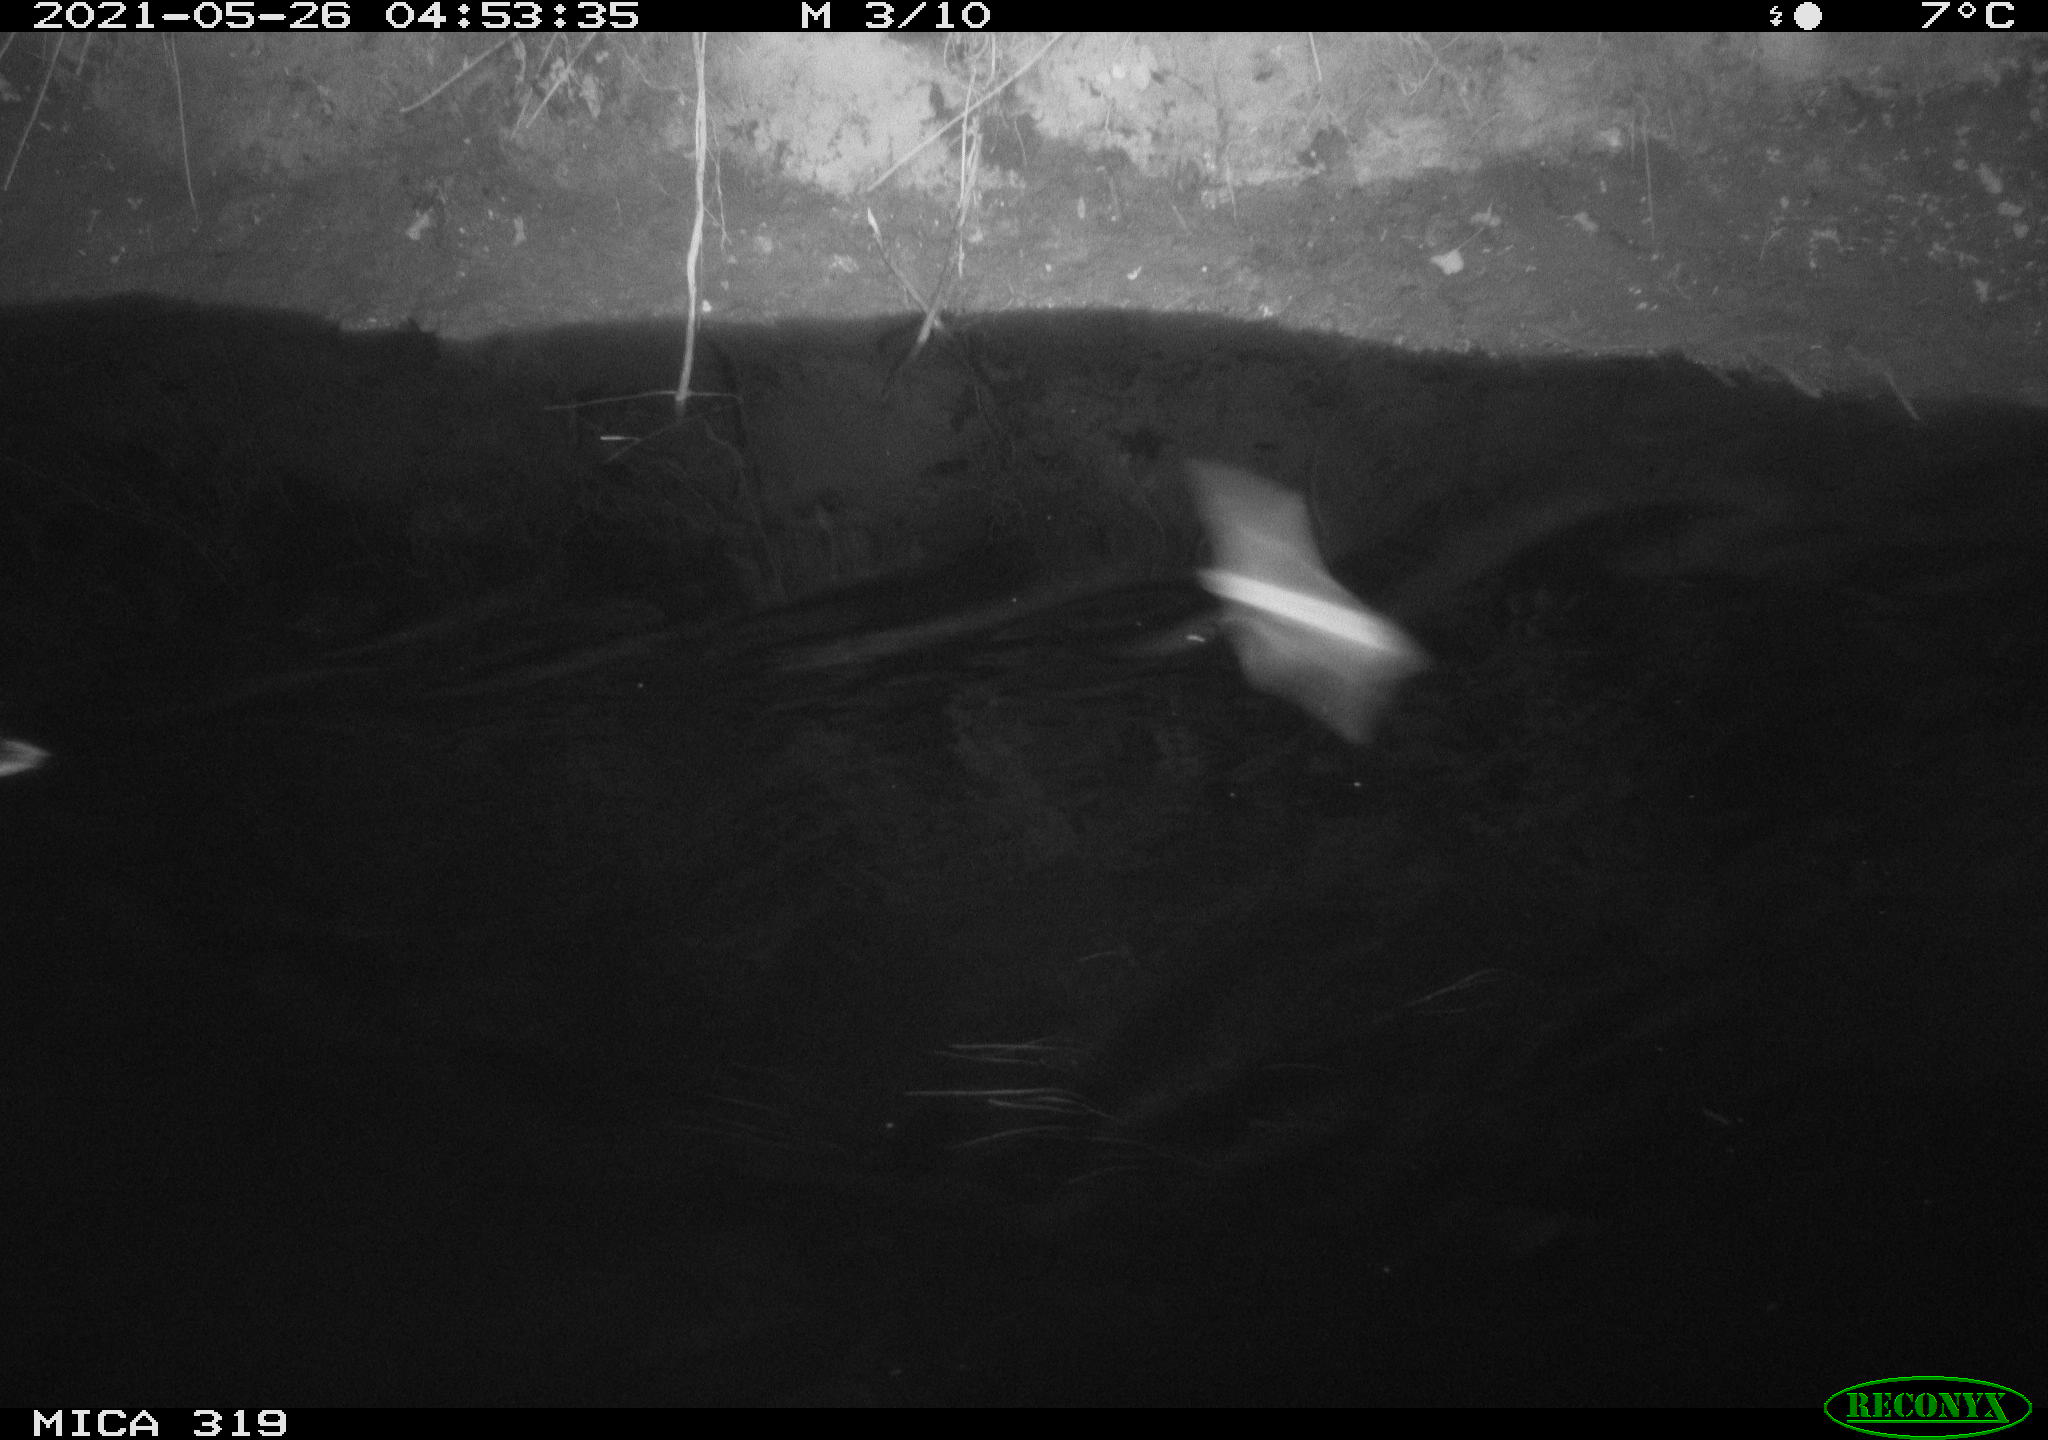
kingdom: Animalia
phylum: Chordata
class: Aves
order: Anseriformes
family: Anatidae
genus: Anas
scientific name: Anas platyrhynchos
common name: Mallard
